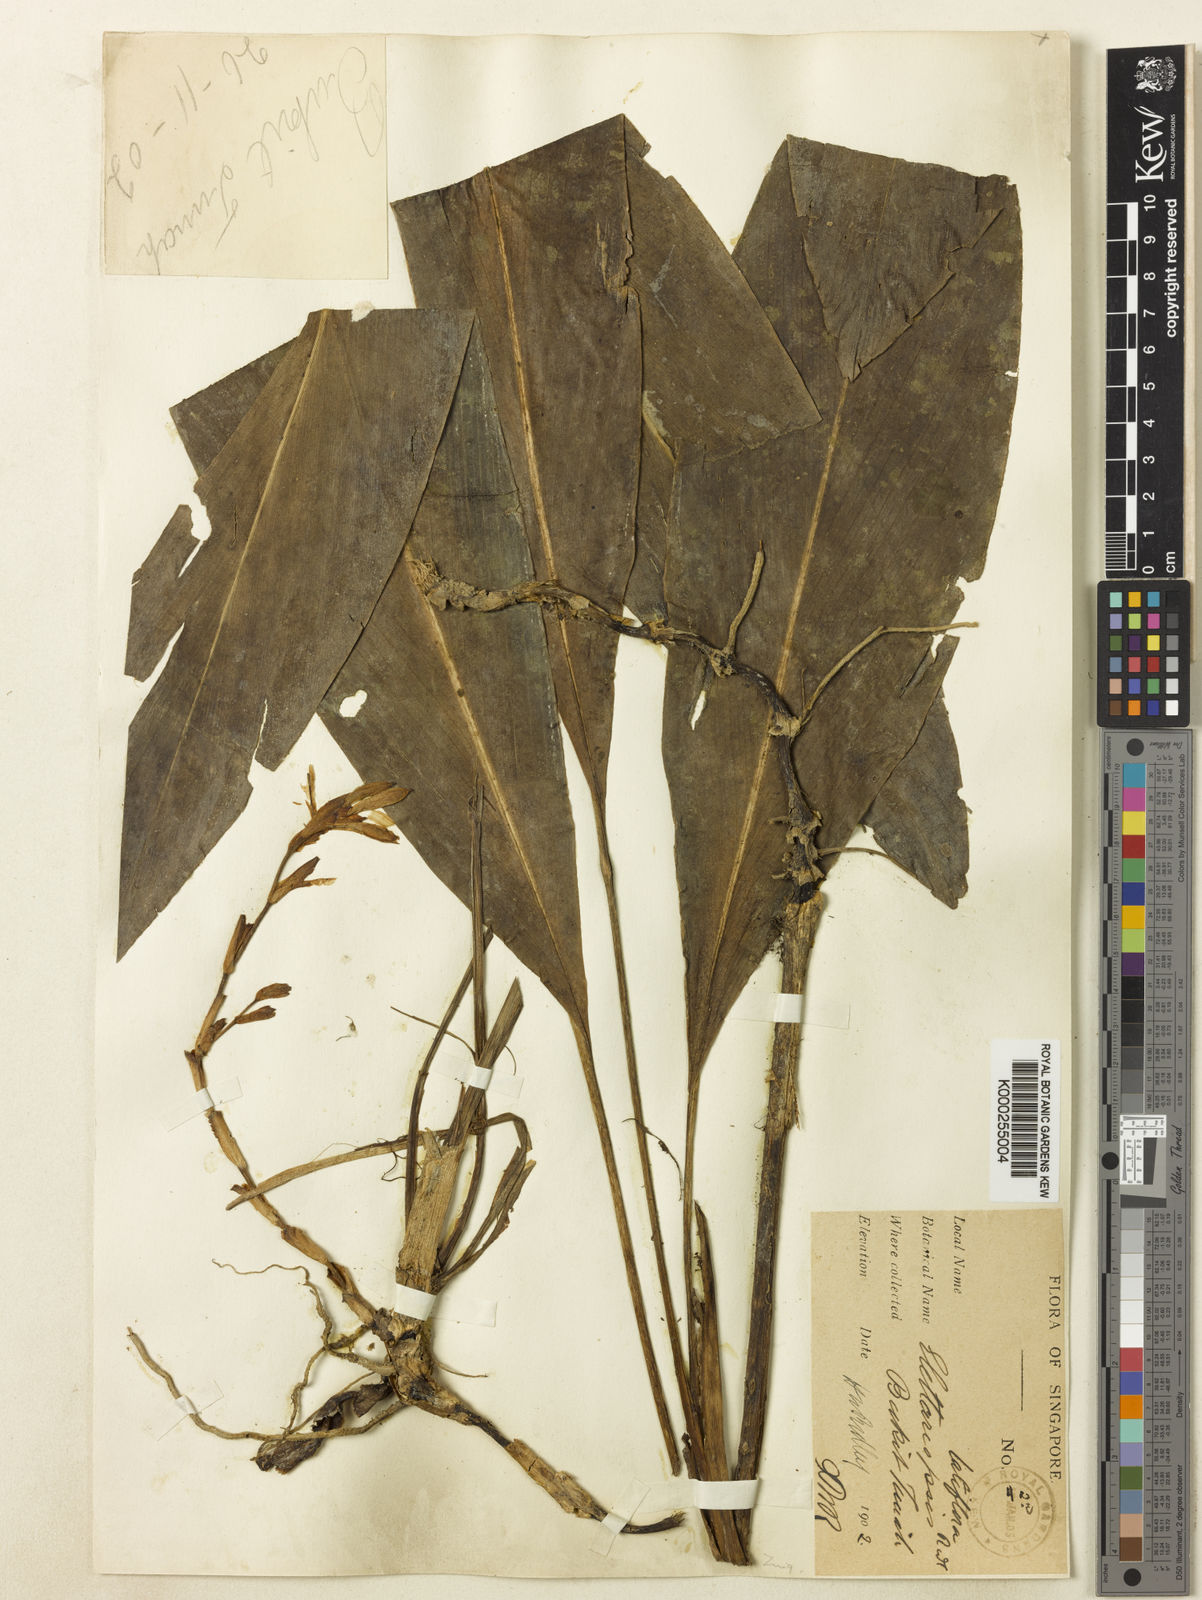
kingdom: Plantae
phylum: Tracheophyta
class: Liliopsida
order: Zingiberales
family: Zingiberaceae
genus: Amomum
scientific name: Amomum curtisii
